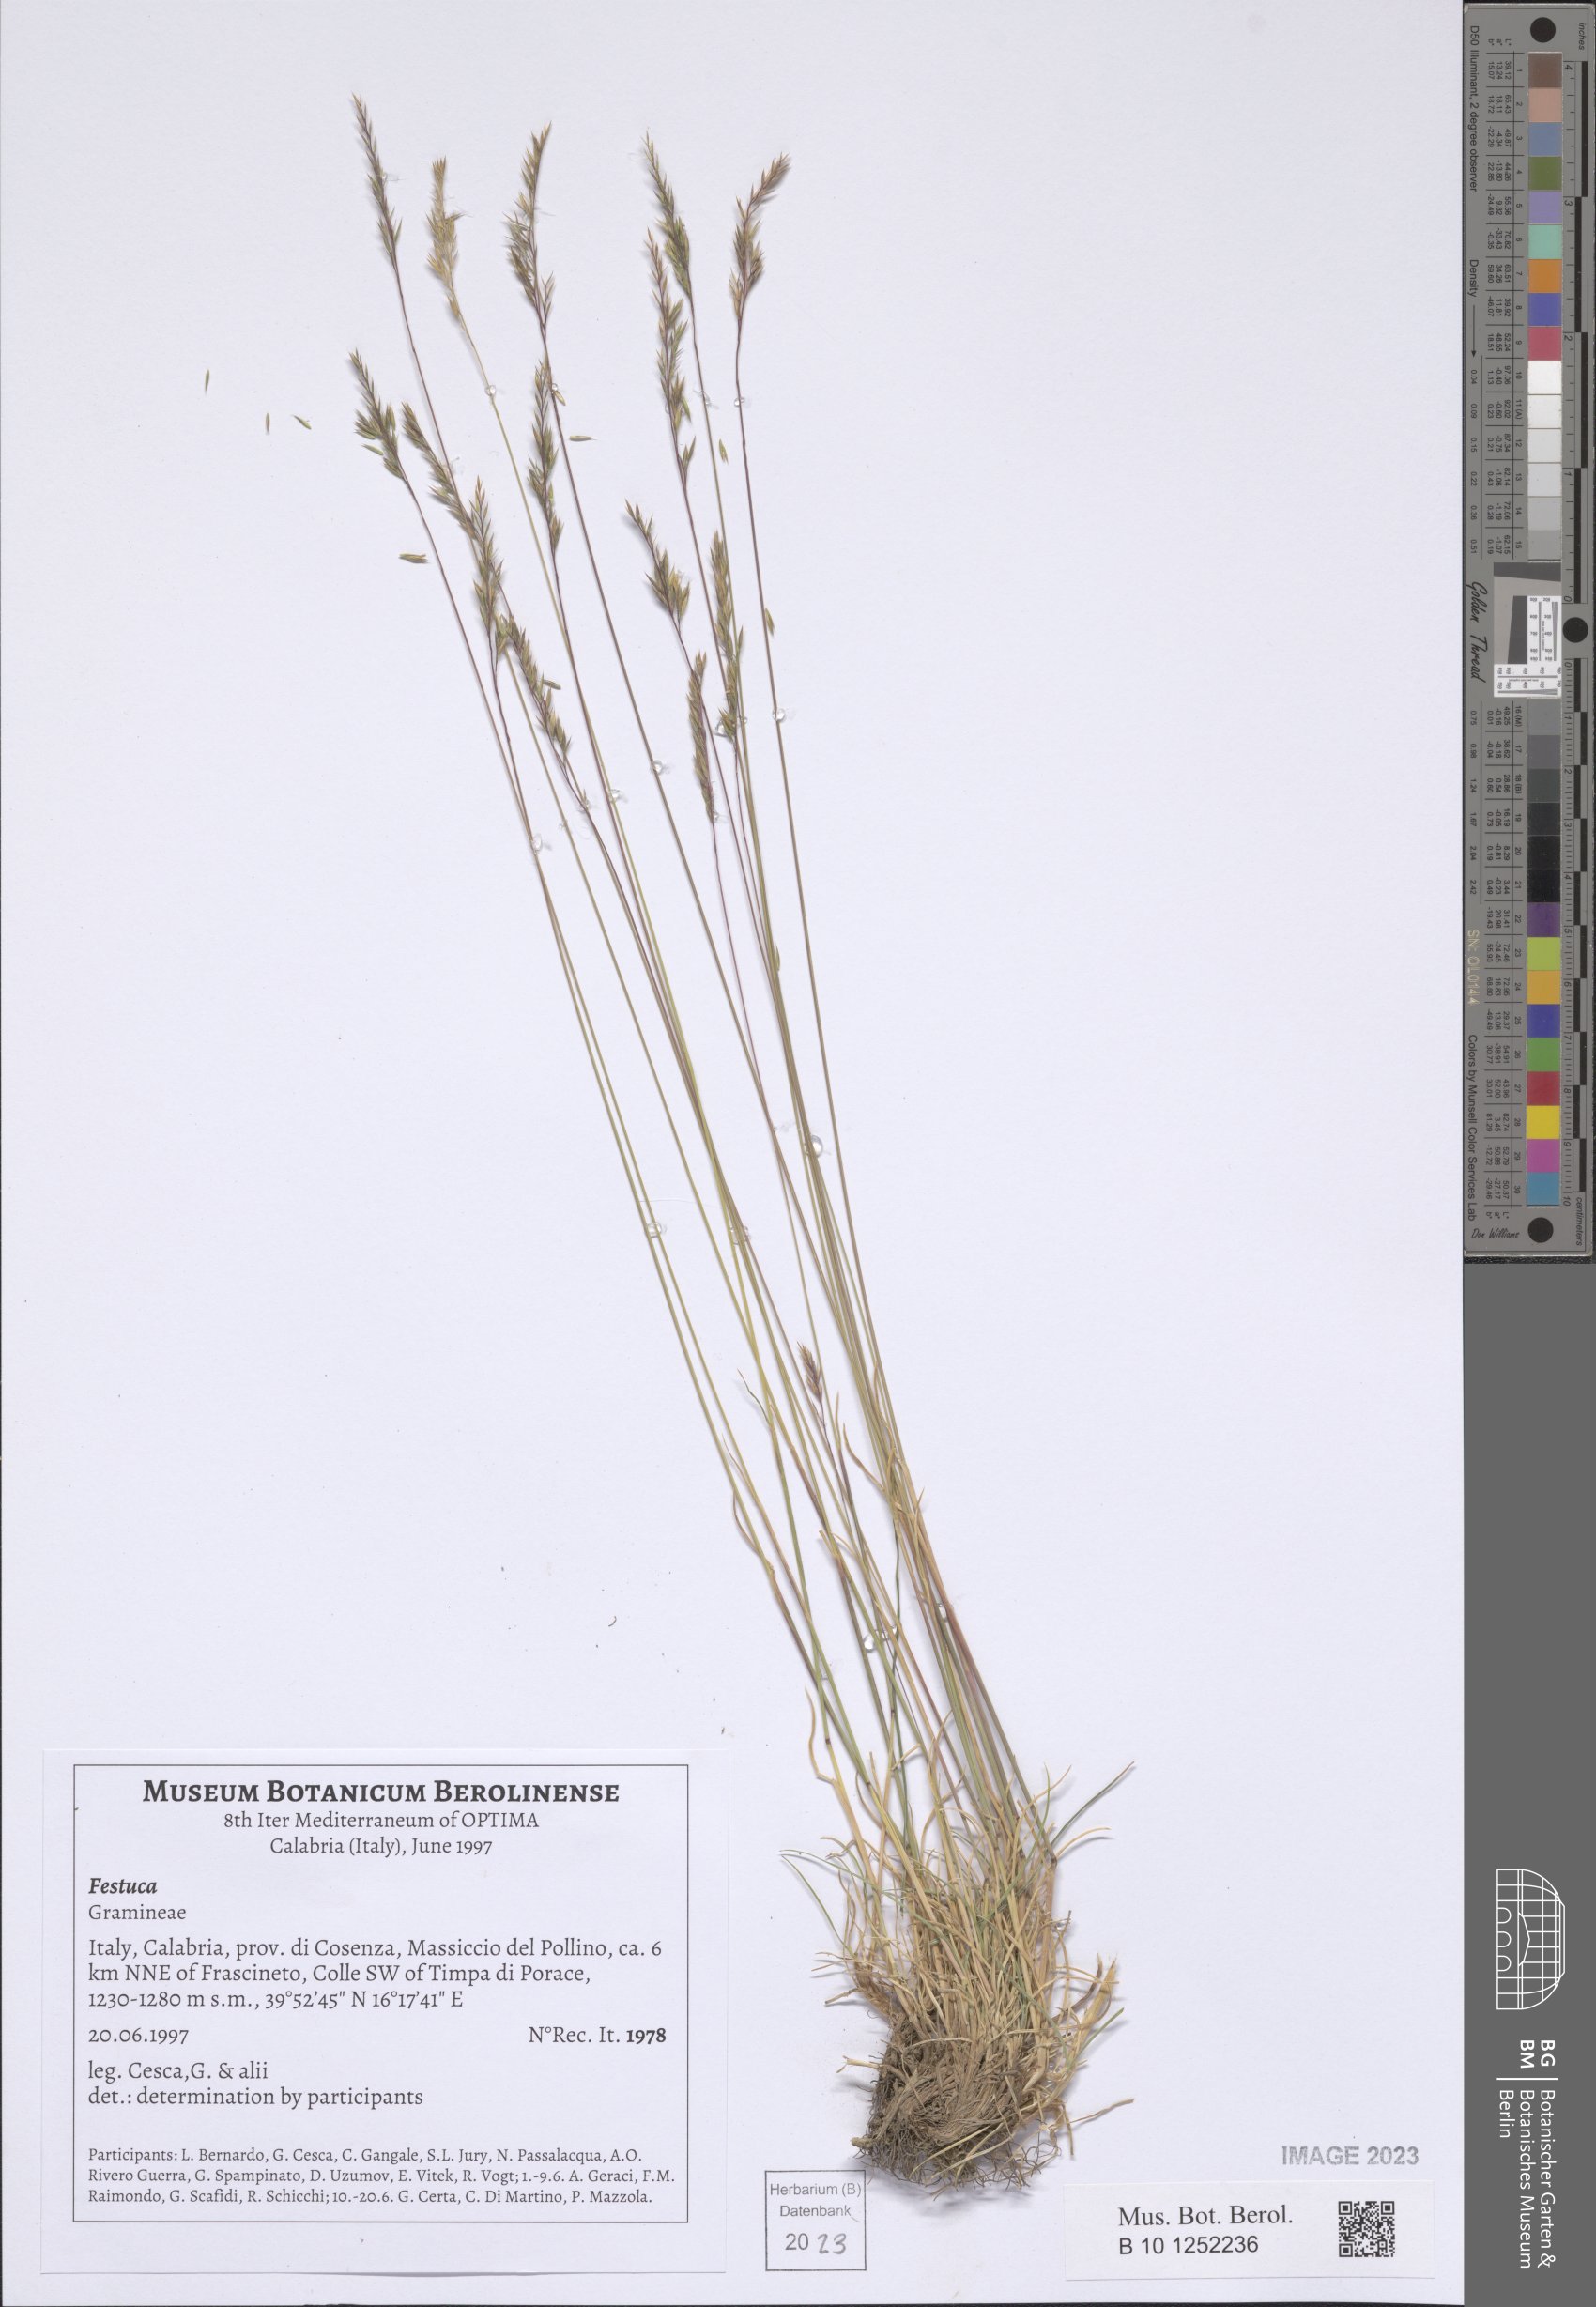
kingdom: Plantae
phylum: Tracheophyta
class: Liliopsida
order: Poales
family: Poaceae
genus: Festuca
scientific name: Festuca
